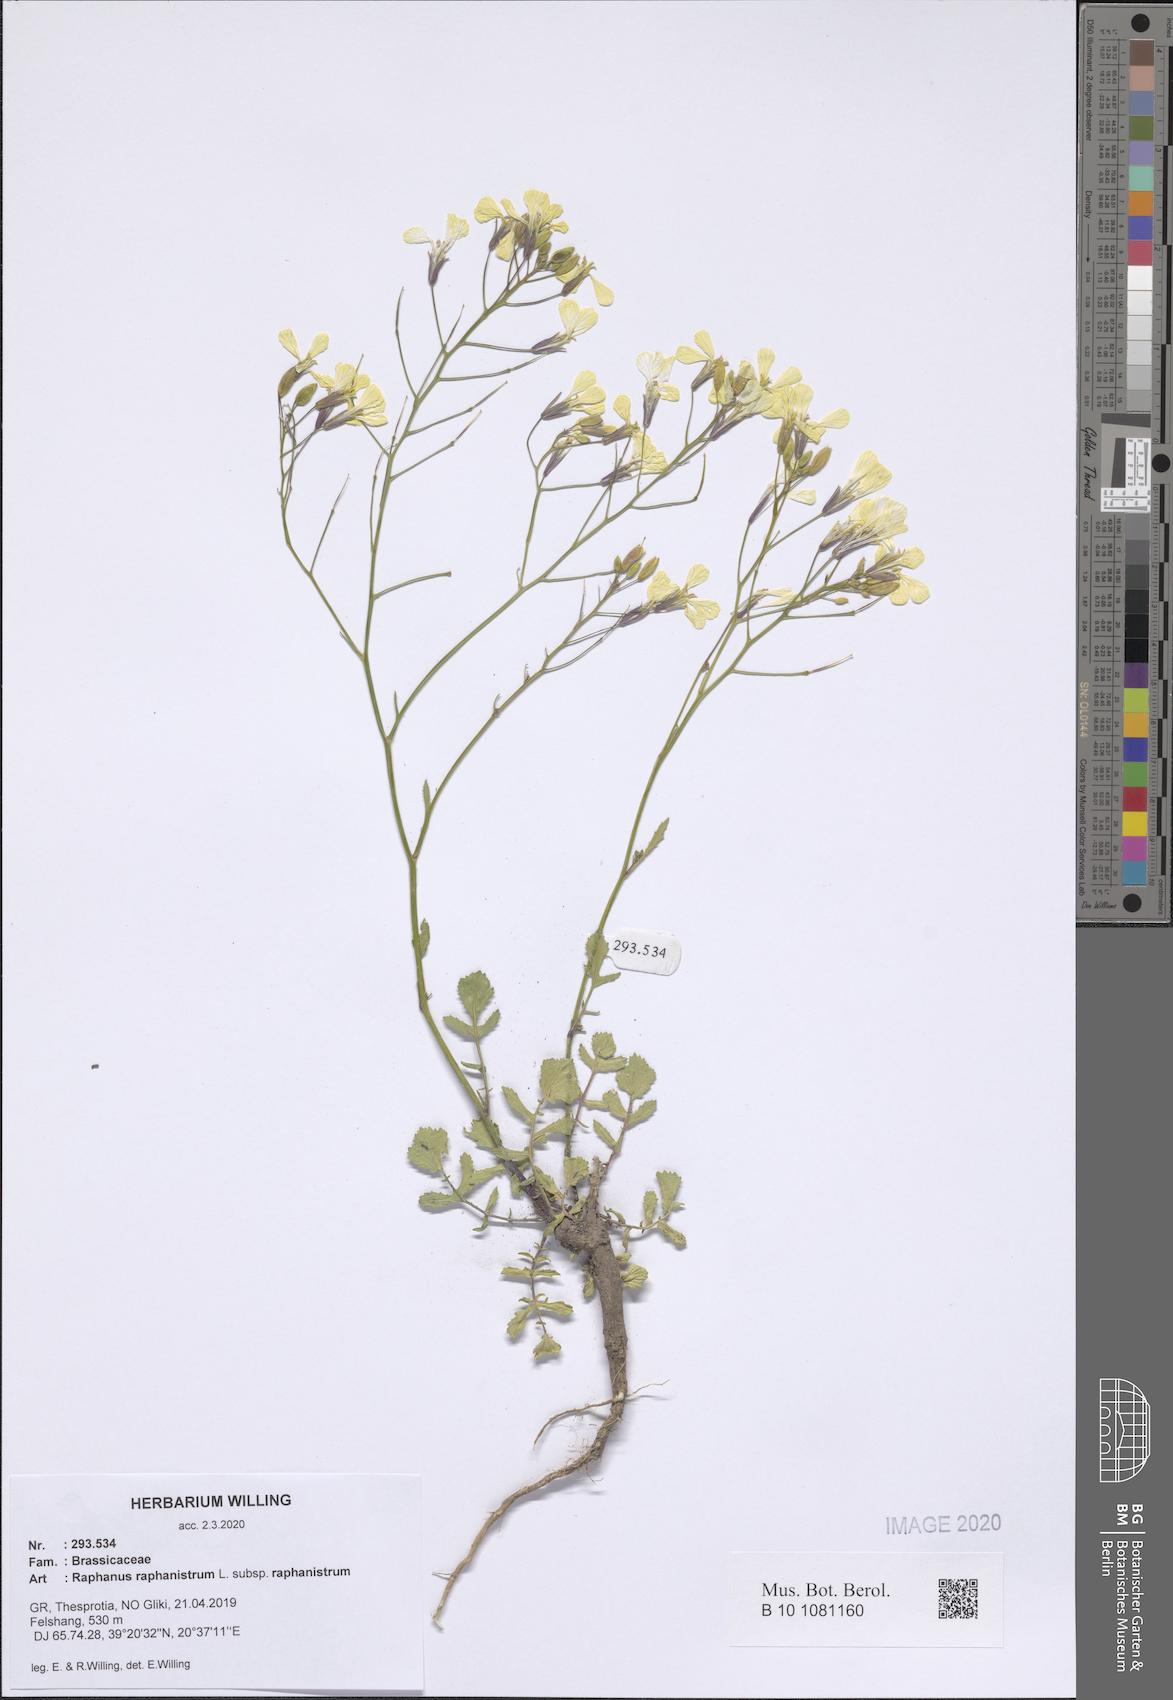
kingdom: Plantae
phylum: Tracheophyta
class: Magnoliopsida
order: Brassicales
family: Brassicaceae
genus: Raphanus
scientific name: Raphanus raphanistrum
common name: Wild radish
